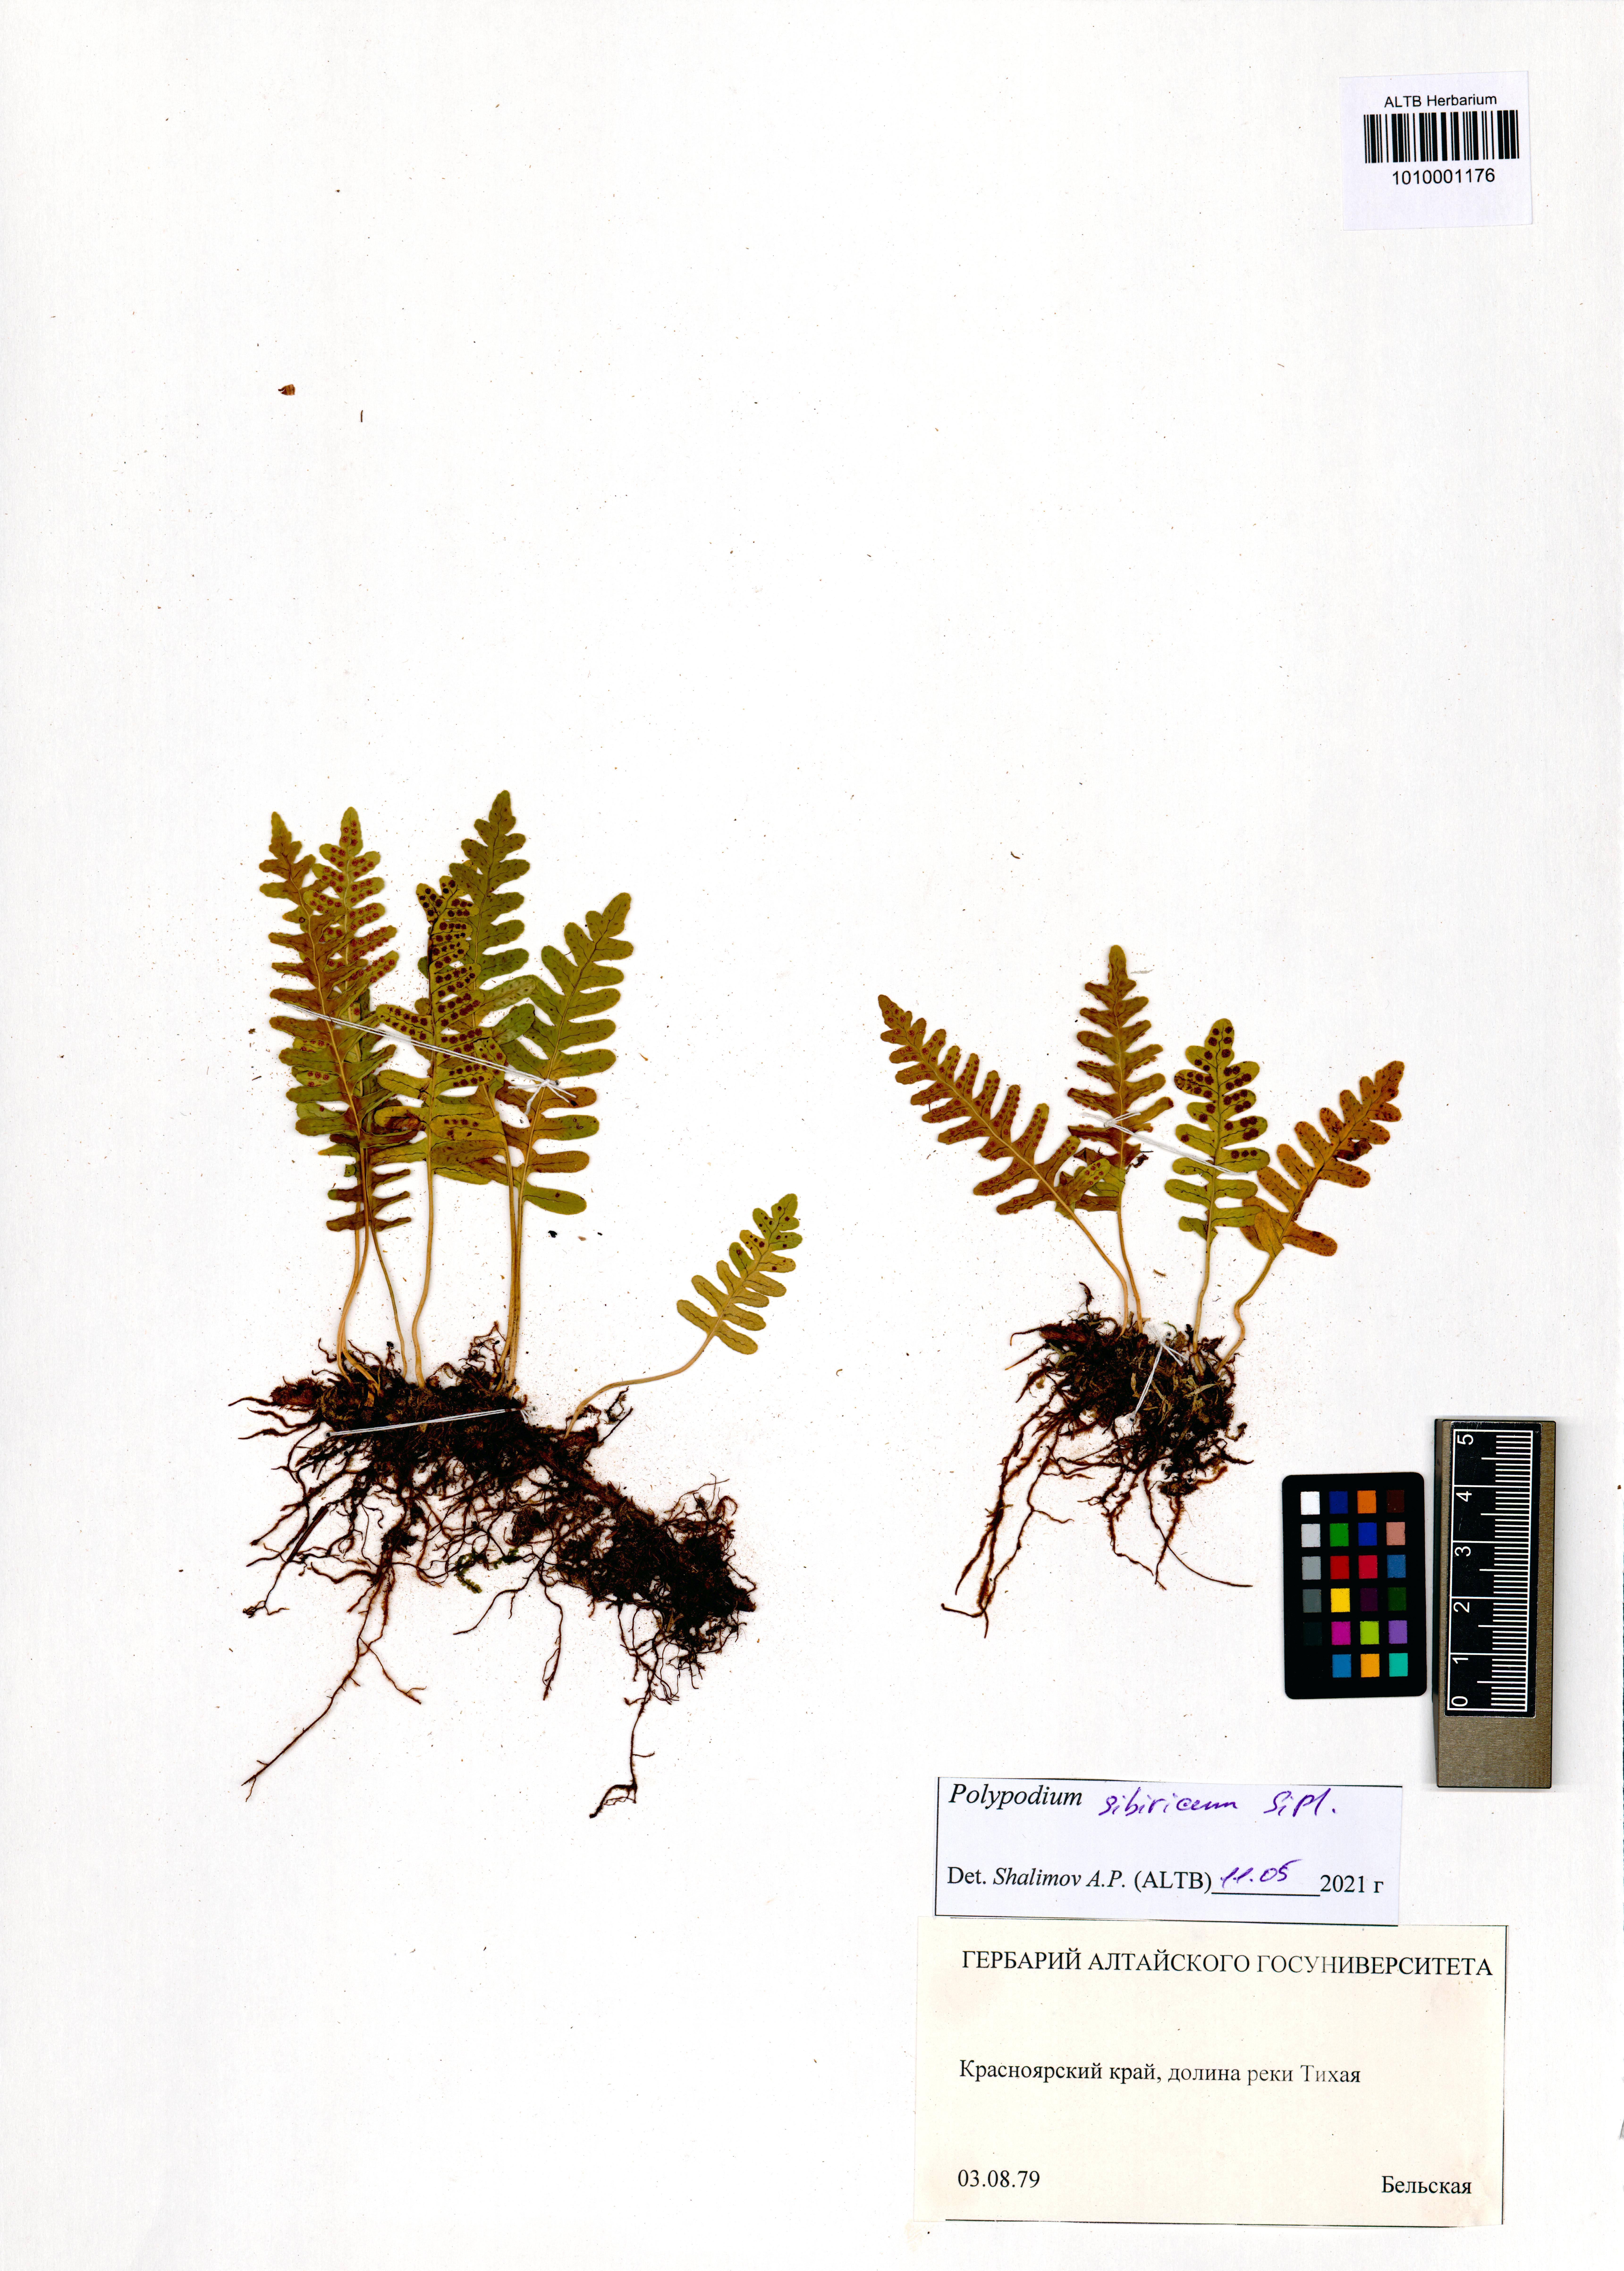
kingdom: Plantae
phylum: Tracheophyta
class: Polypodiopsida
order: Polypodiales
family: Polypodiaceae
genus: Polypodium
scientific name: Polypodium sibiricum
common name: Siberian polypody
